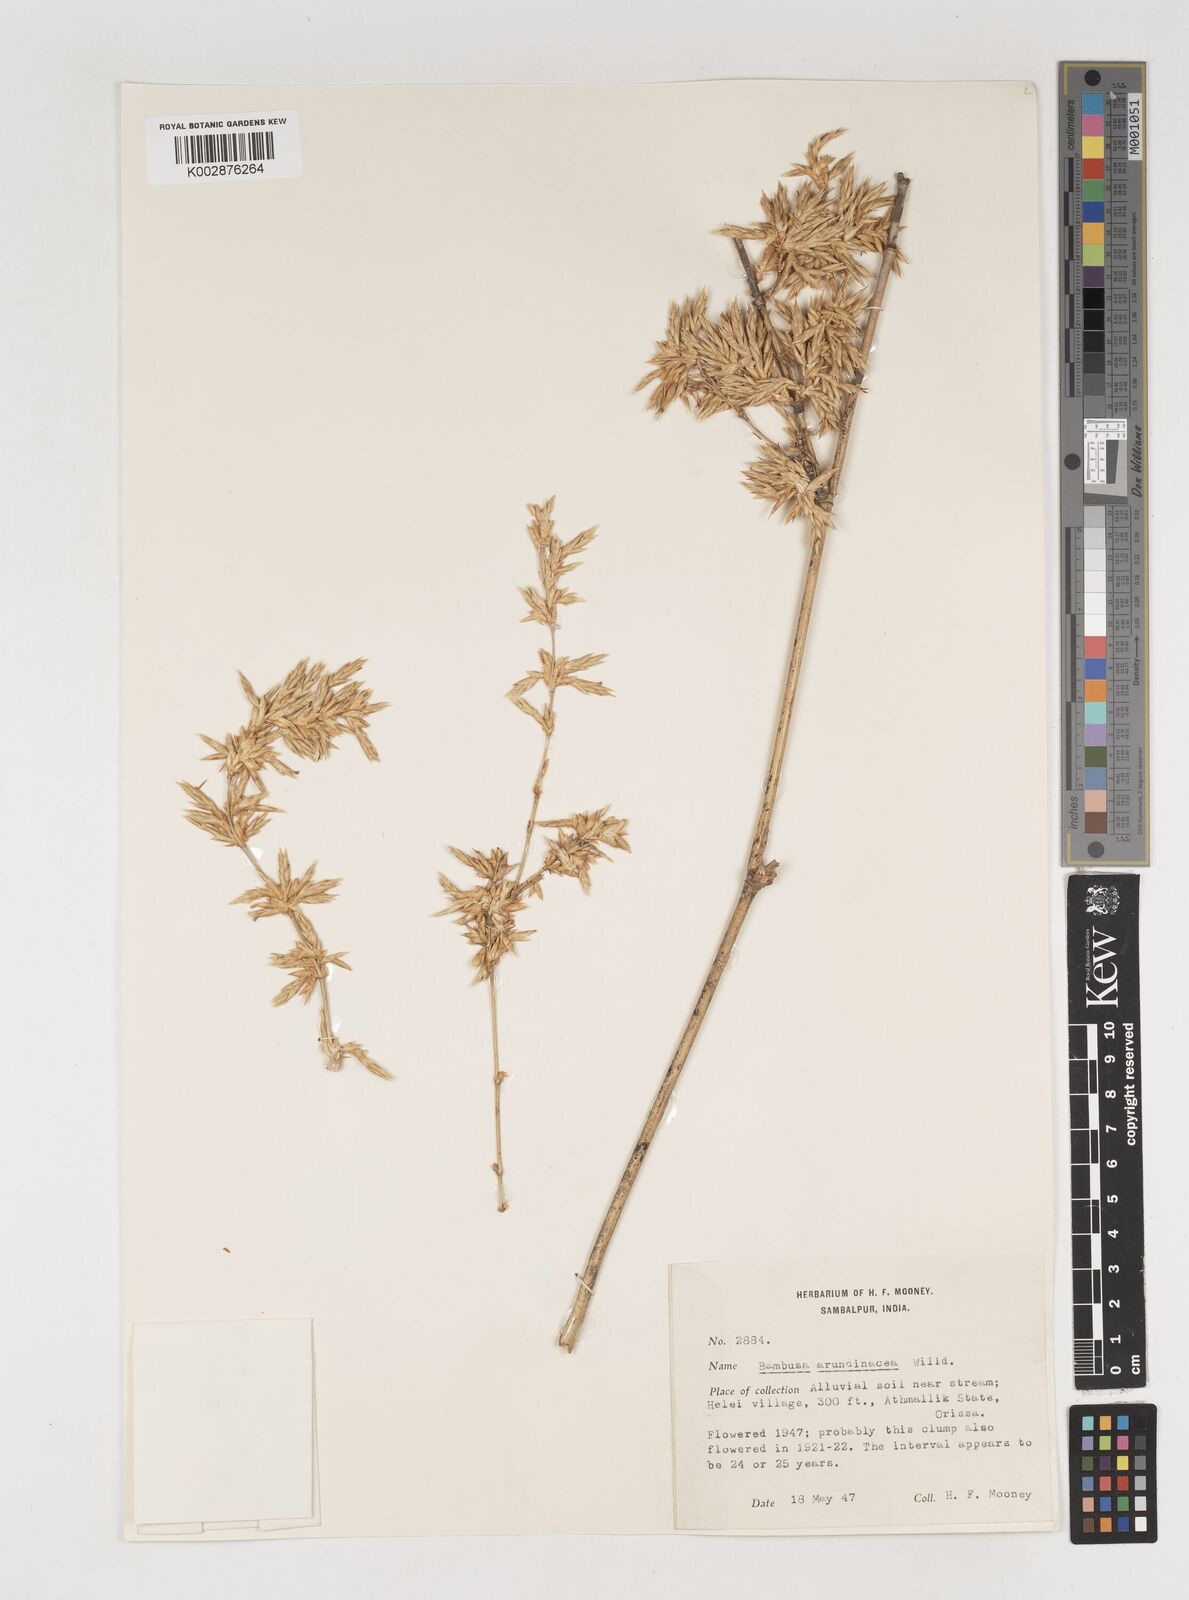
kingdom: Plantae
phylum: Tracheophyta
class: Liliopsida
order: Poales
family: Poaceae
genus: Bambusa
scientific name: Bambusa bambos
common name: Indian thorny bamboo
